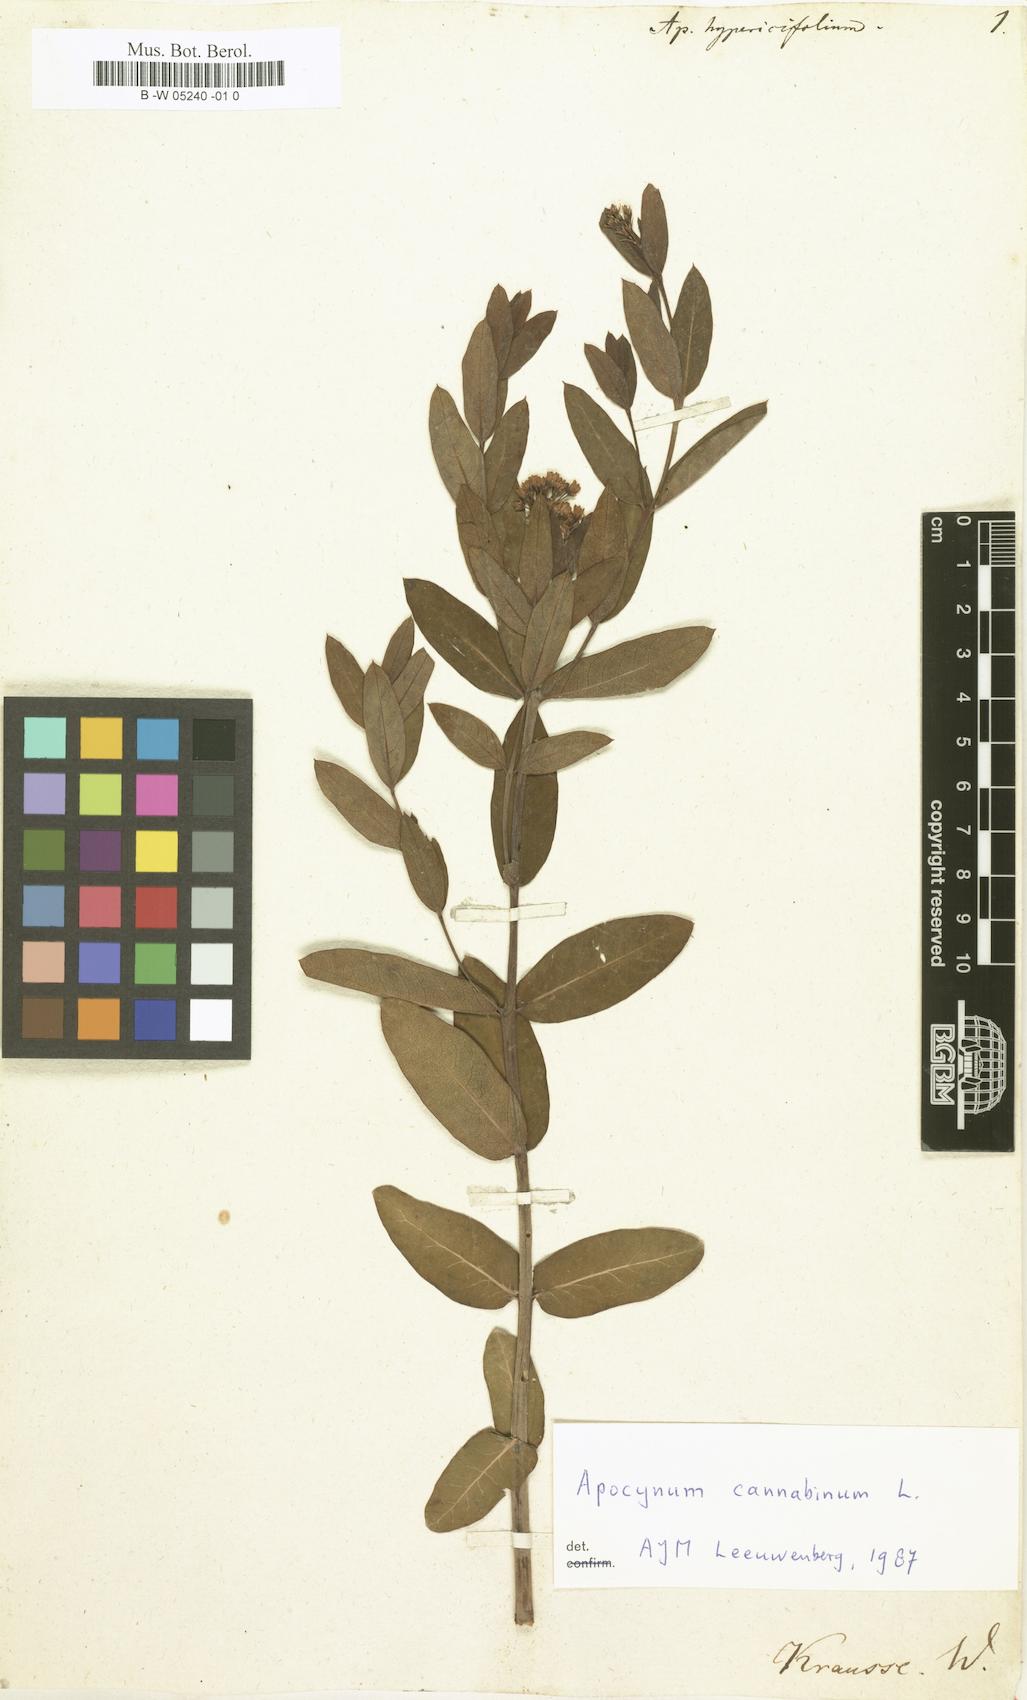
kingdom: Plantae
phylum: Tracheophyta
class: Magnoliopsida
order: Gentianales
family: Apocynaceae
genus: Apocynum
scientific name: Apocynum cannabinum
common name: Hemp dogbane
